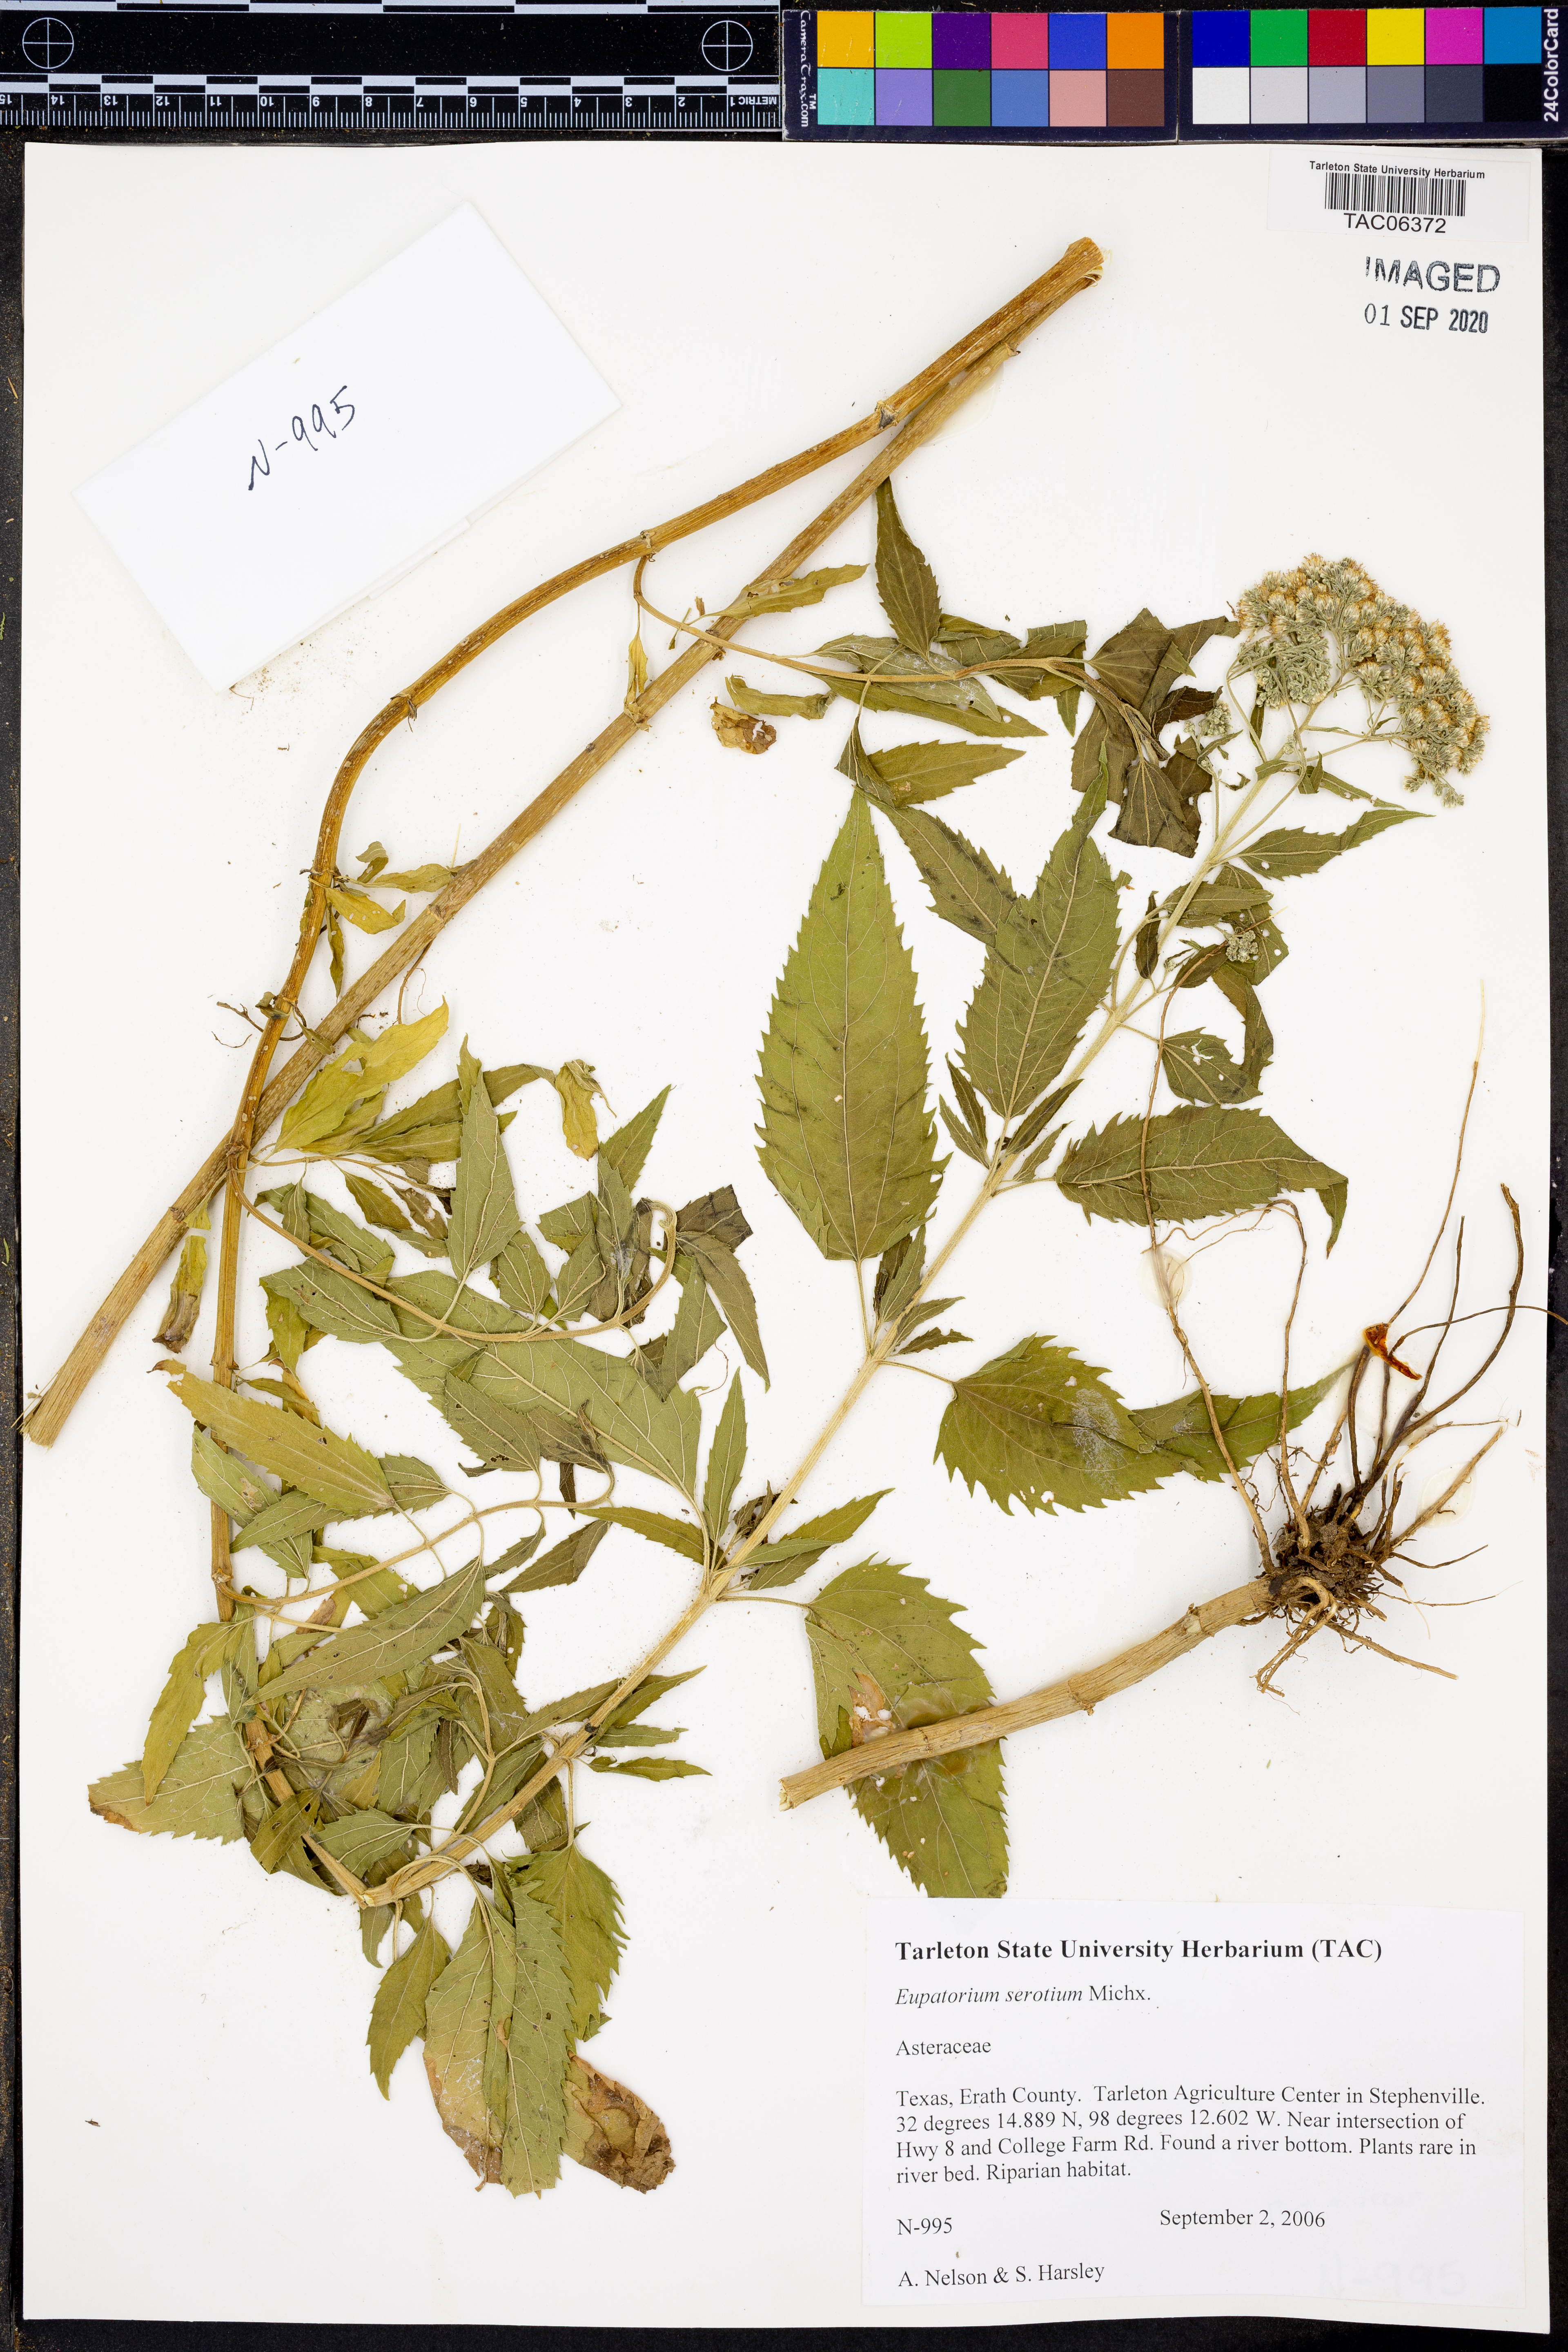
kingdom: Plantae
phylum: Tracheophyta
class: Magnoliopsida
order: Asterales
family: Asteraceae
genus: Eupatorium
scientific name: Eupatorium serotinum
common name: Late boneset
